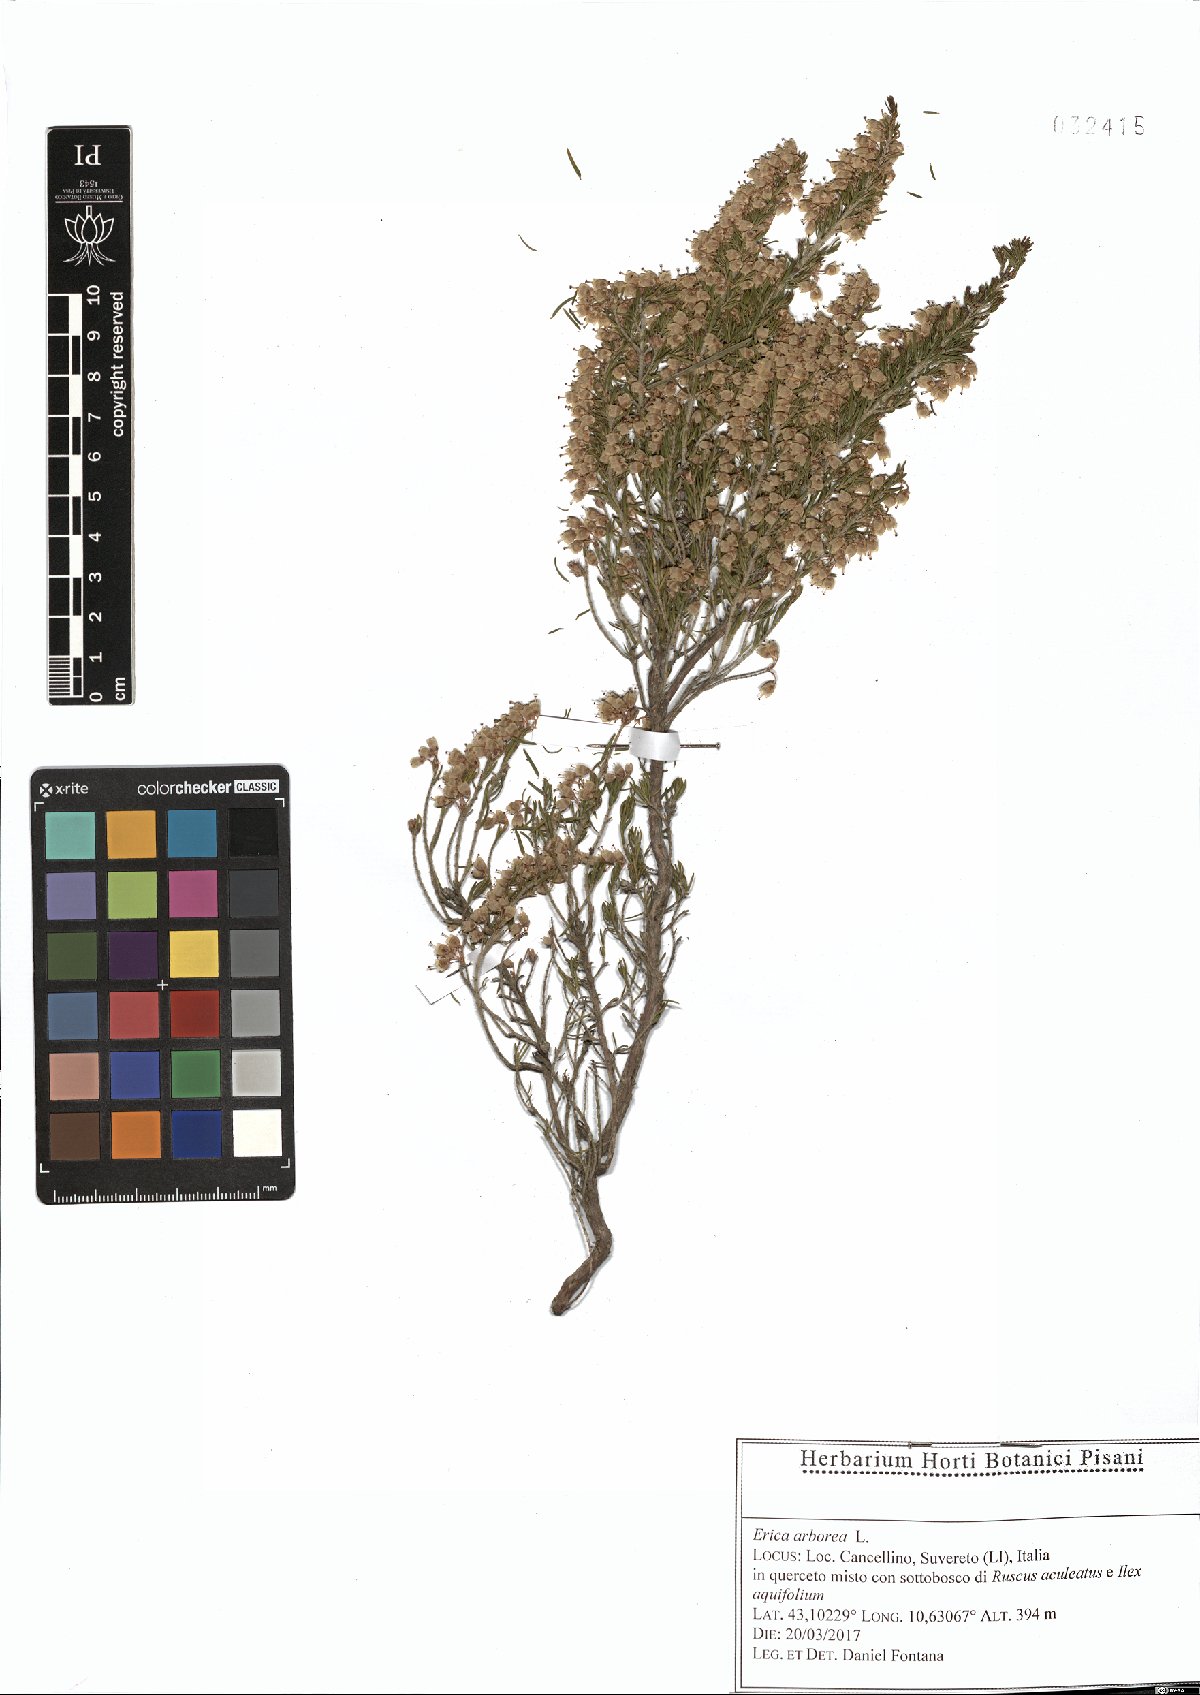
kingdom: Plantae
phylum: Tracheophyta
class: Magnoliopsida
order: Ericales
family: Ericaceae
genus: Erica
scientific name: Erica arborea
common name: Tree heath
